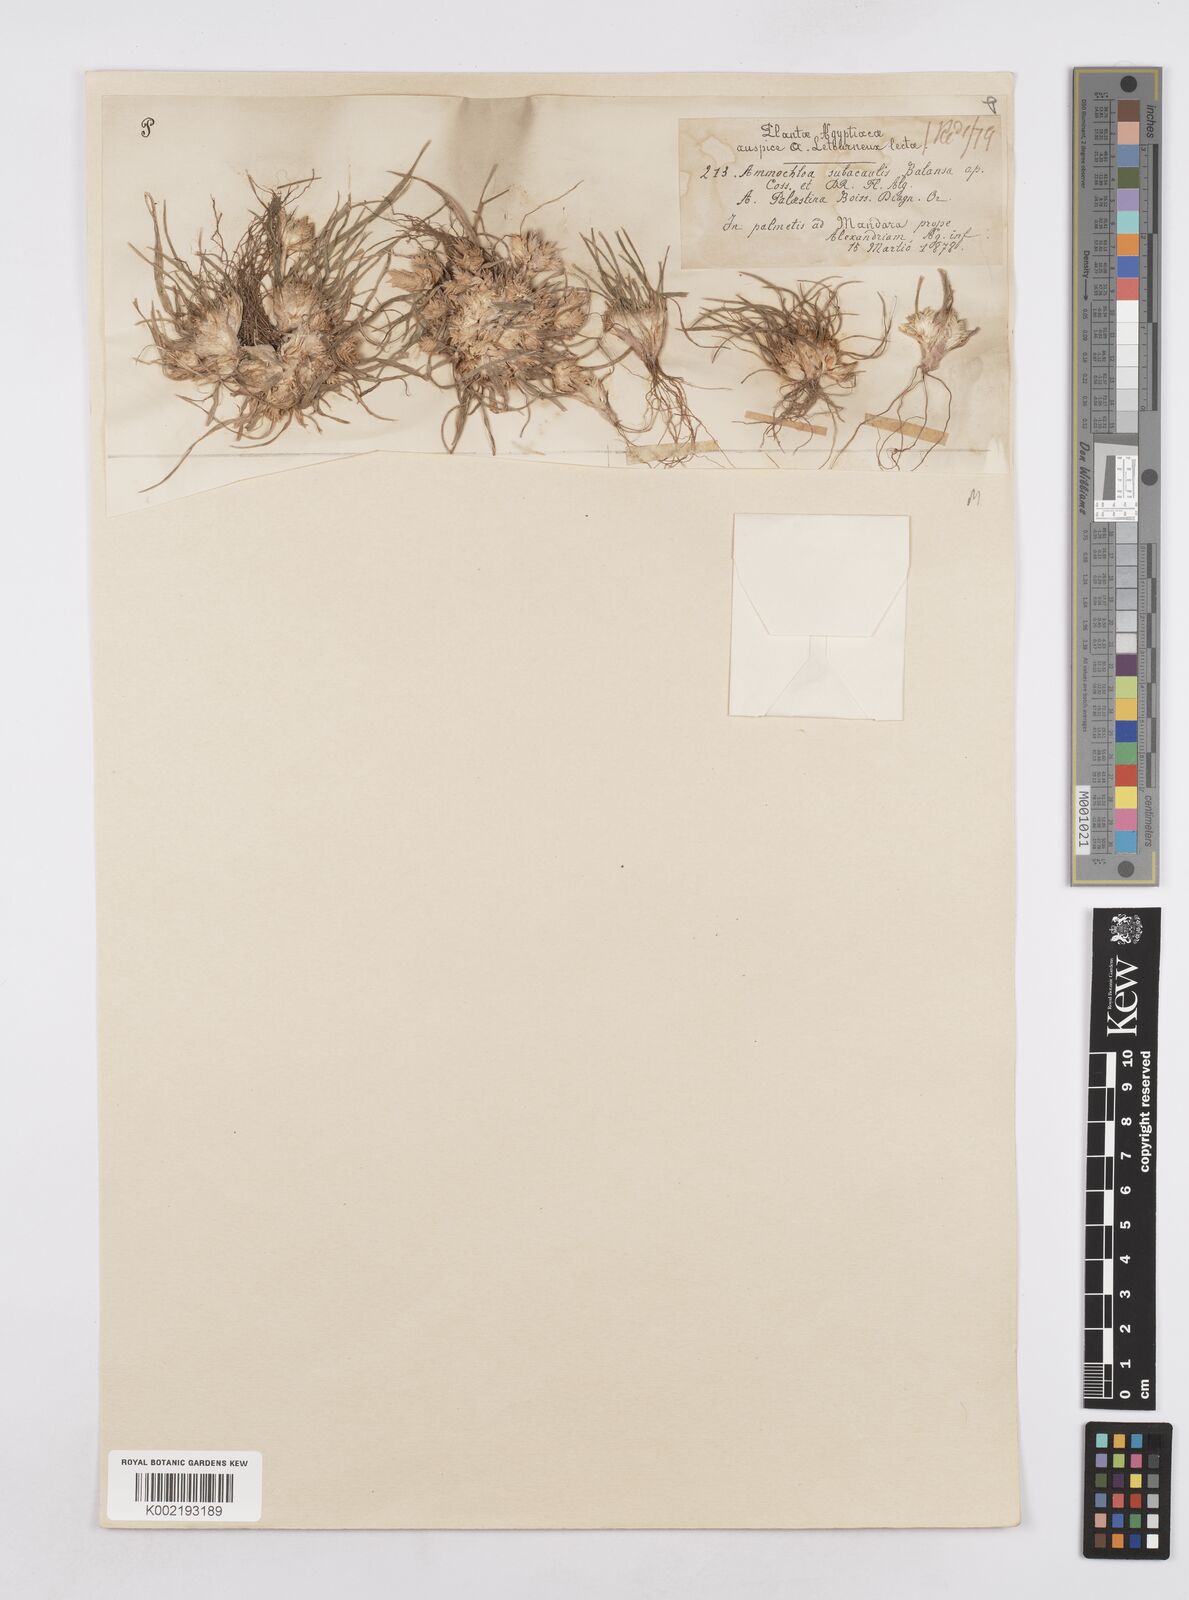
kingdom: Plantae
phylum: Tracheophyta
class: Liliopsida
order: Poales
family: Poaceae
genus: Ammochloa
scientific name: Ammochloa palaestina
